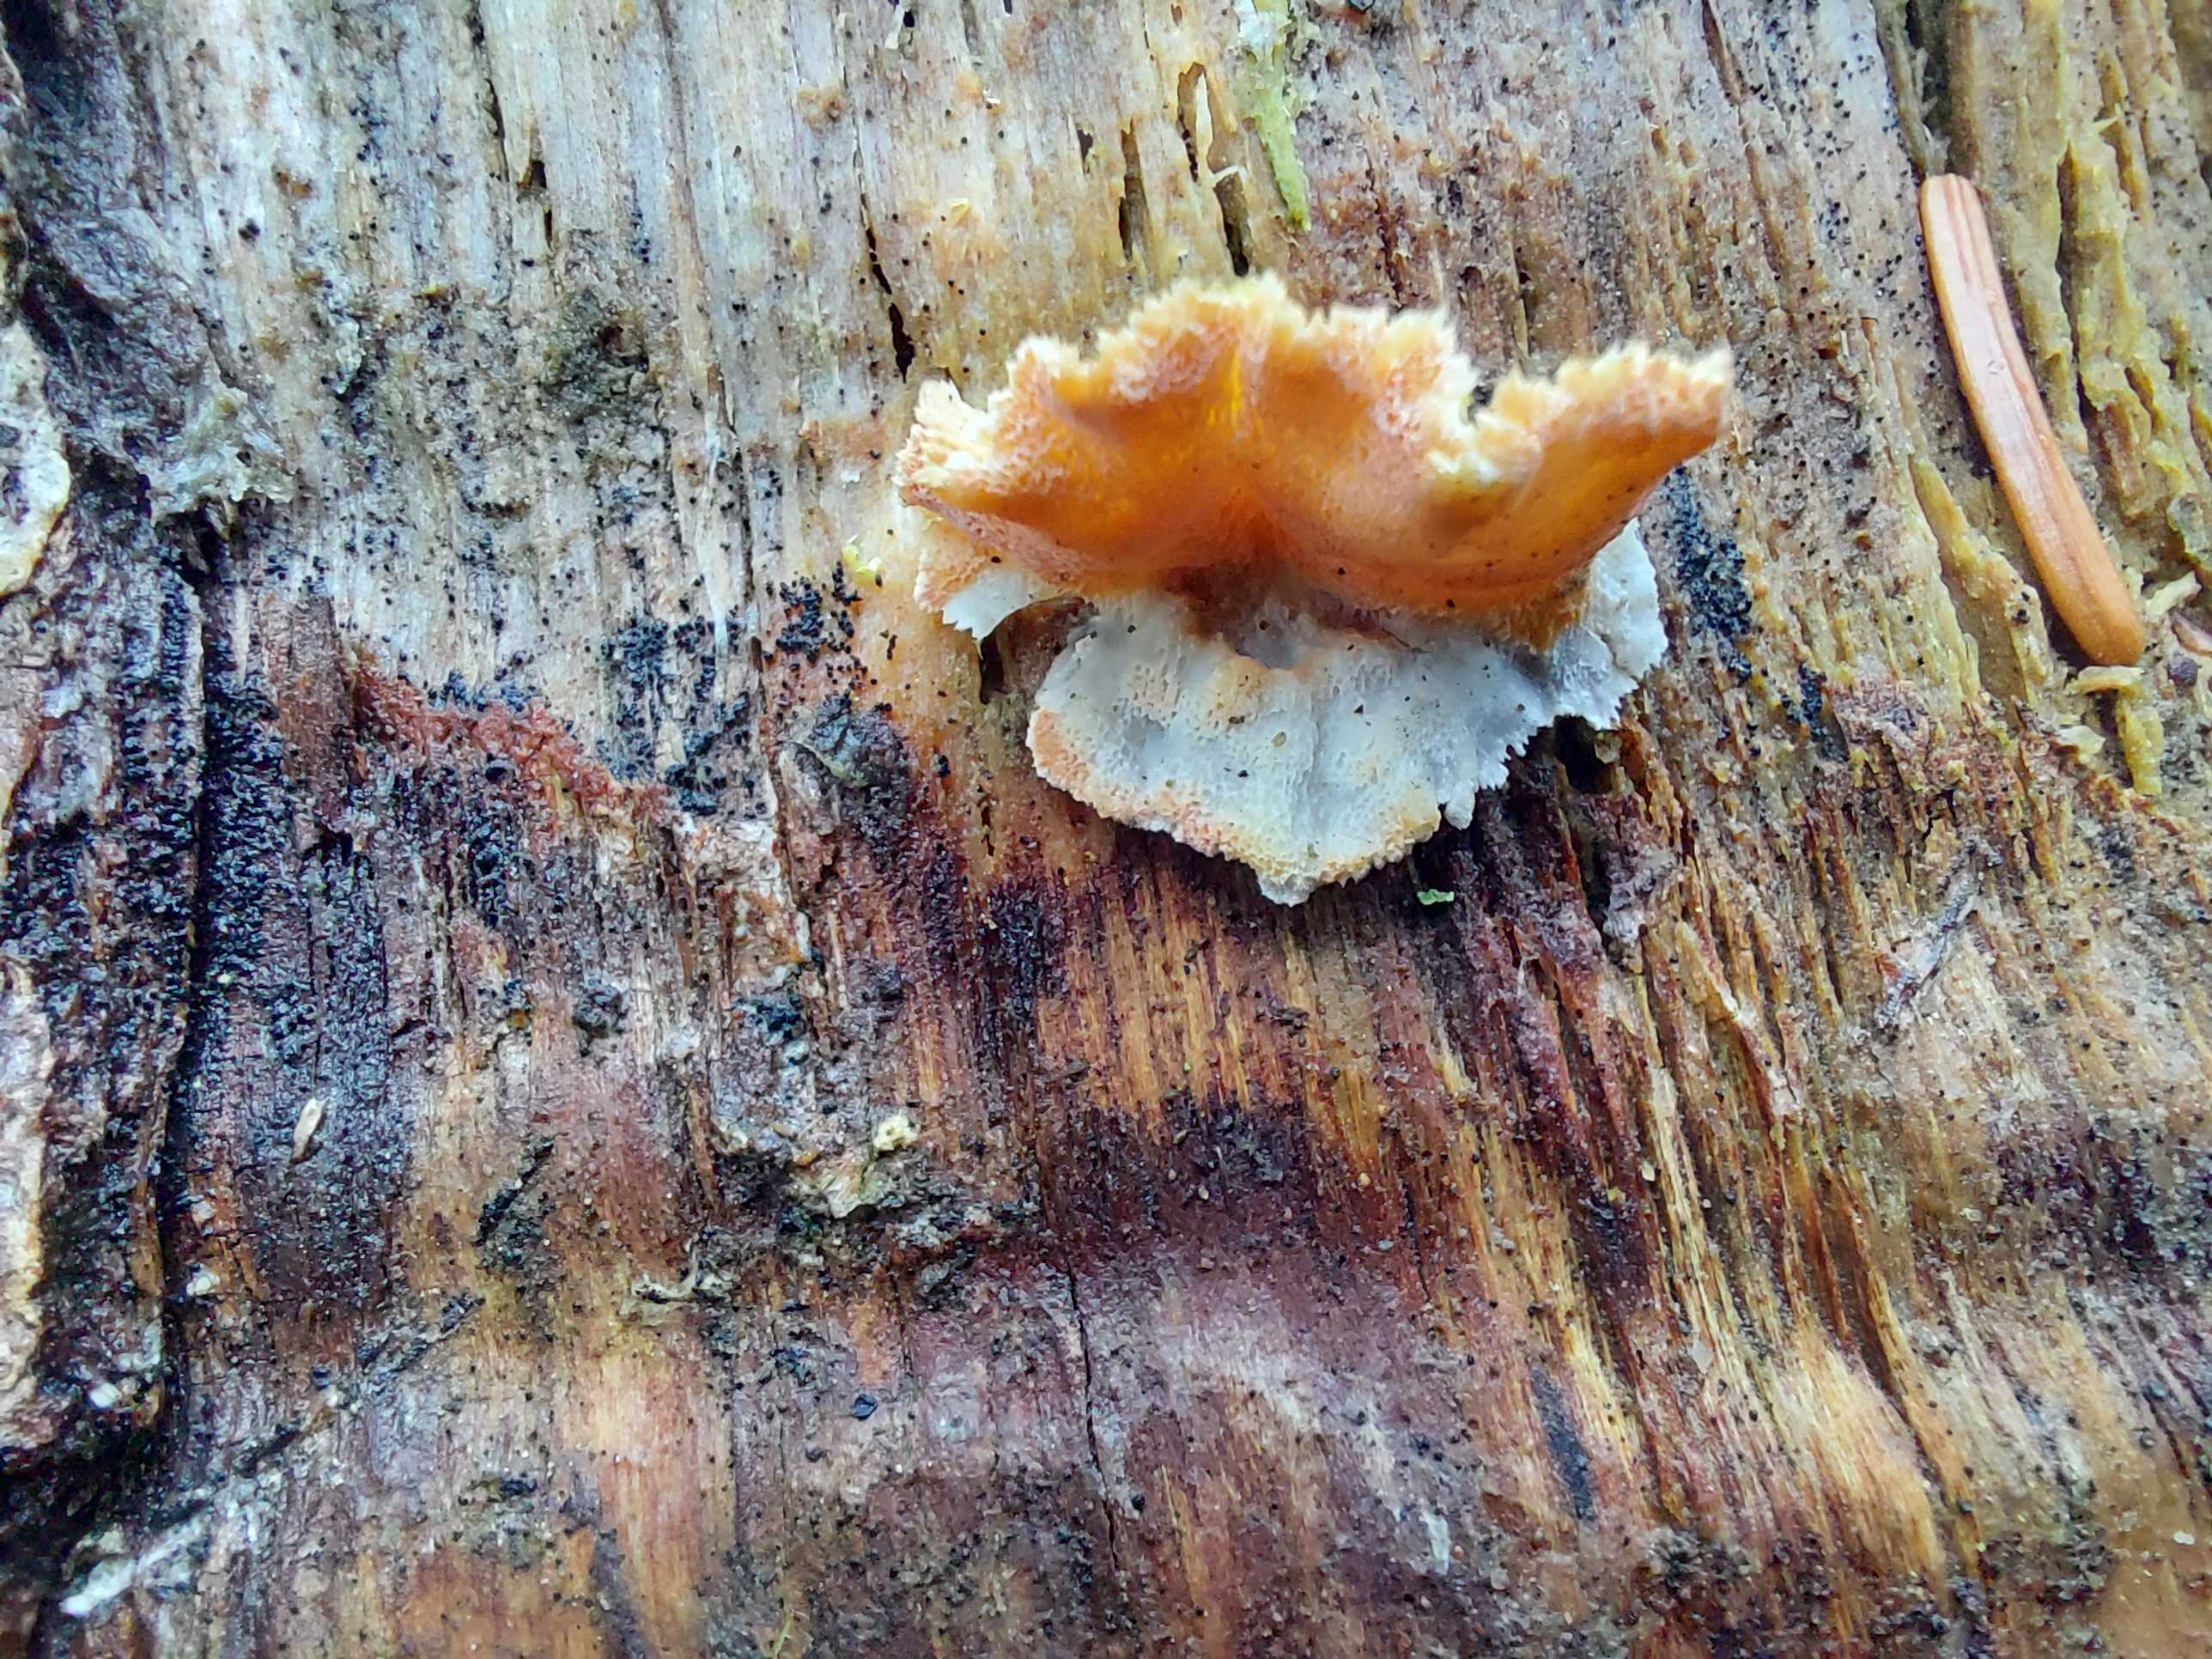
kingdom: Fungi
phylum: Basidiomycota
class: Agaricomycetes
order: Polyporales
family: Incrustoporiaceae
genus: Skeletocutis
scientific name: Skeletocutis amorpha
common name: orange krystalporesvamp
